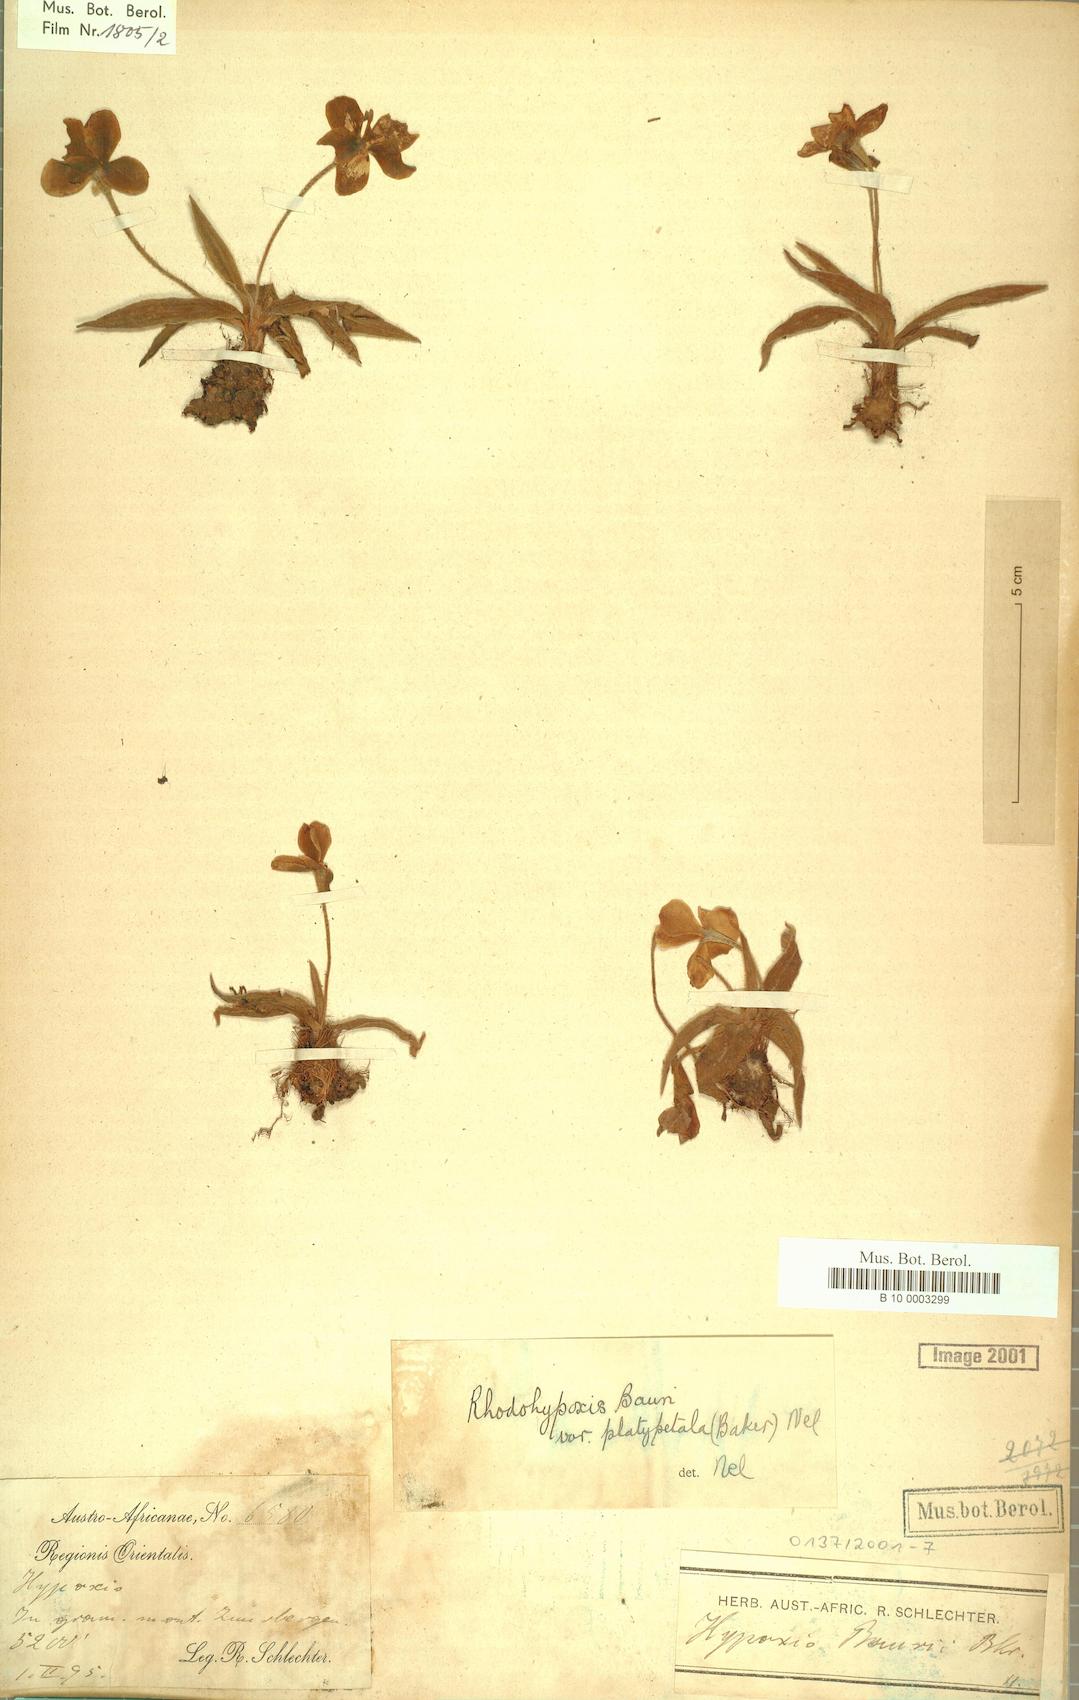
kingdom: Plantae
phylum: Tracheophyta
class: Liliopsida
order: Asparagales
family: Hypoxidaceae
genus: Hypoxis
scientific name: Hypoxis baurii
